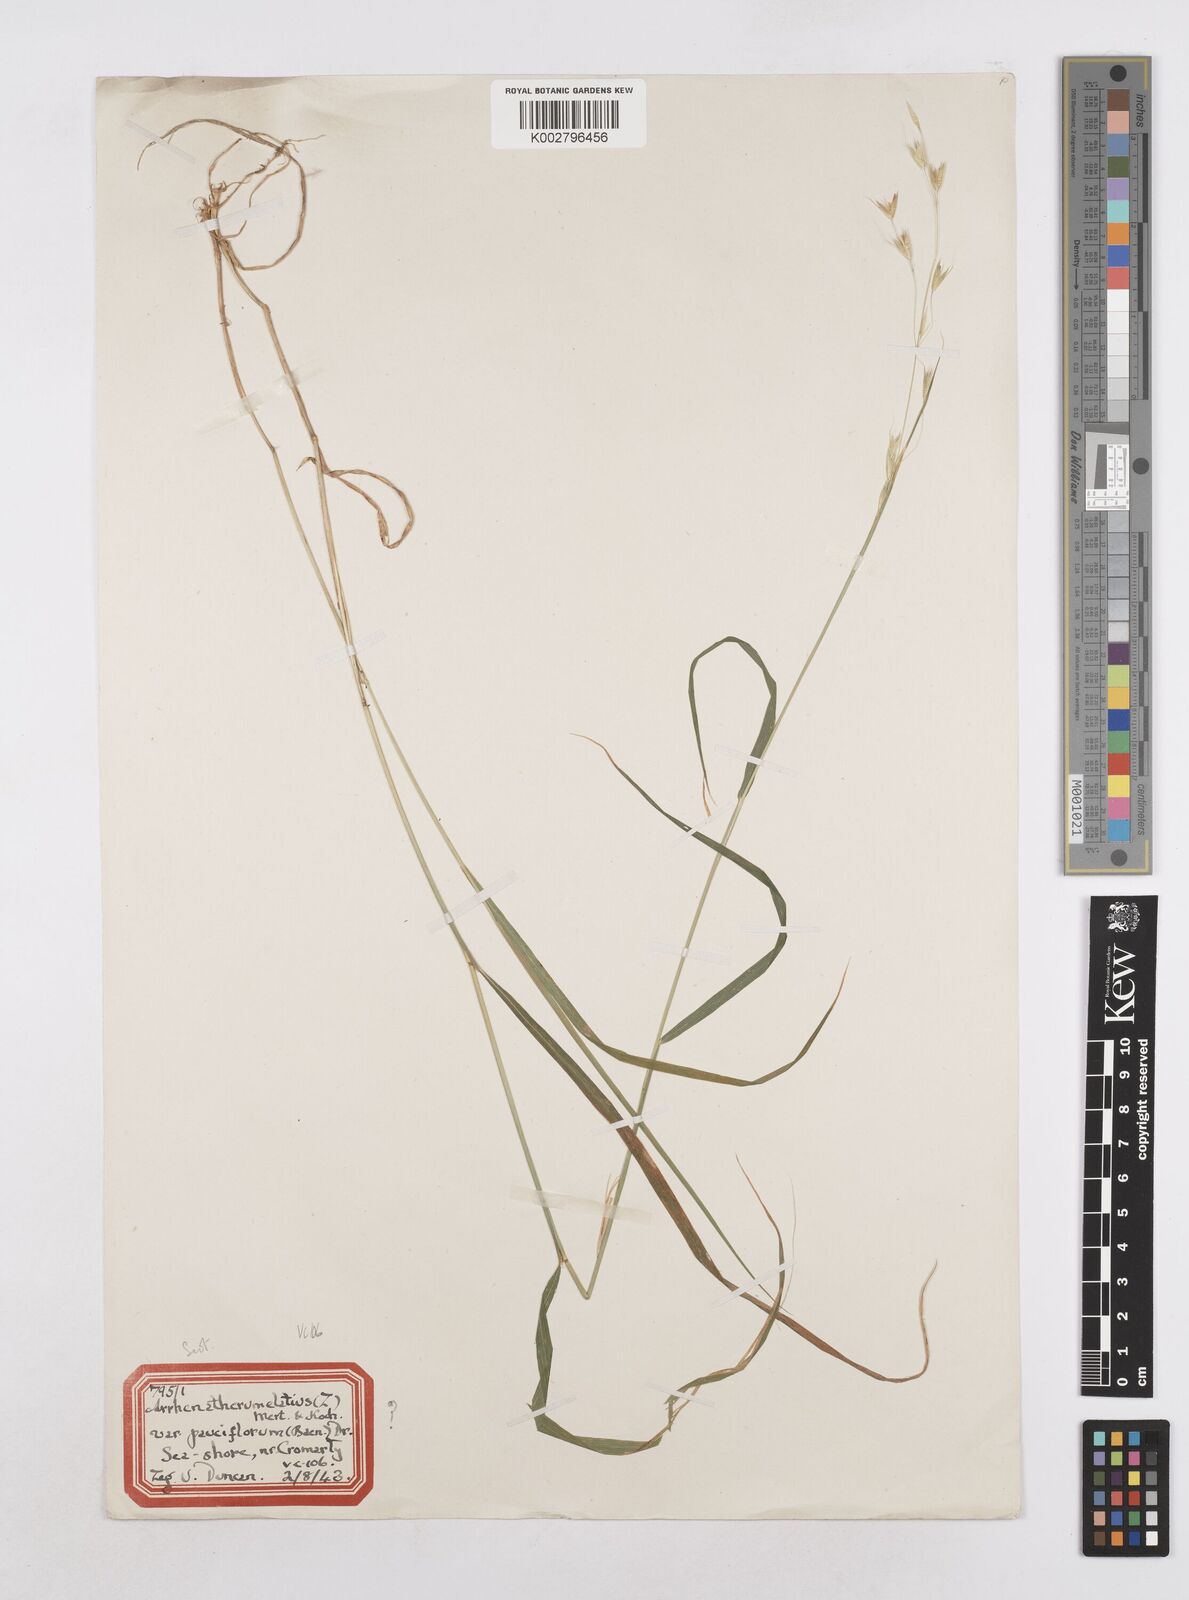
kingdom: Plantae
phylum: Tracheophyta
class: Liliopsida
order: Poales
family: Poaceae
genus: Arrhenatherum
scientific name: Arrhenatherum elatius
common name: Tall oatgrass
